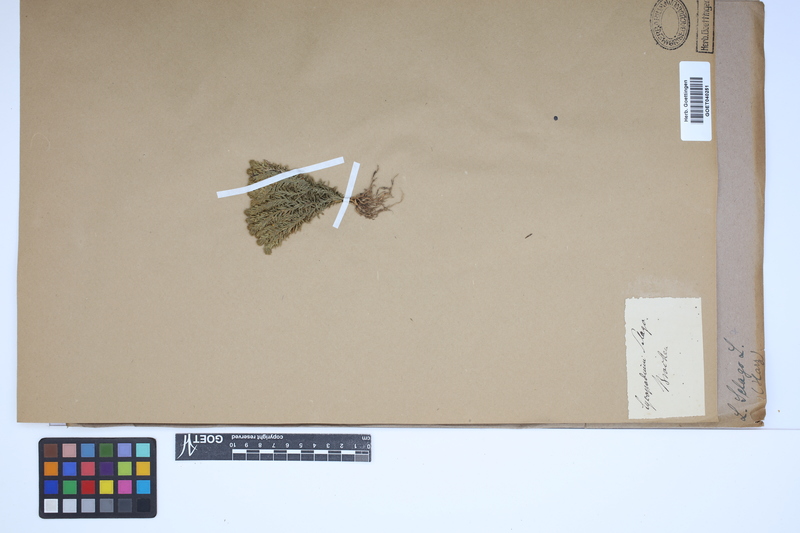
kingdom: Plantae
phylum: Tracheophyta
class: Lycopodiopsida
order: Lycopodiales
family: Lycopodiaceae
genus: Huperzia
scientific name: Huperzia selago
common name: Northern firmoss
